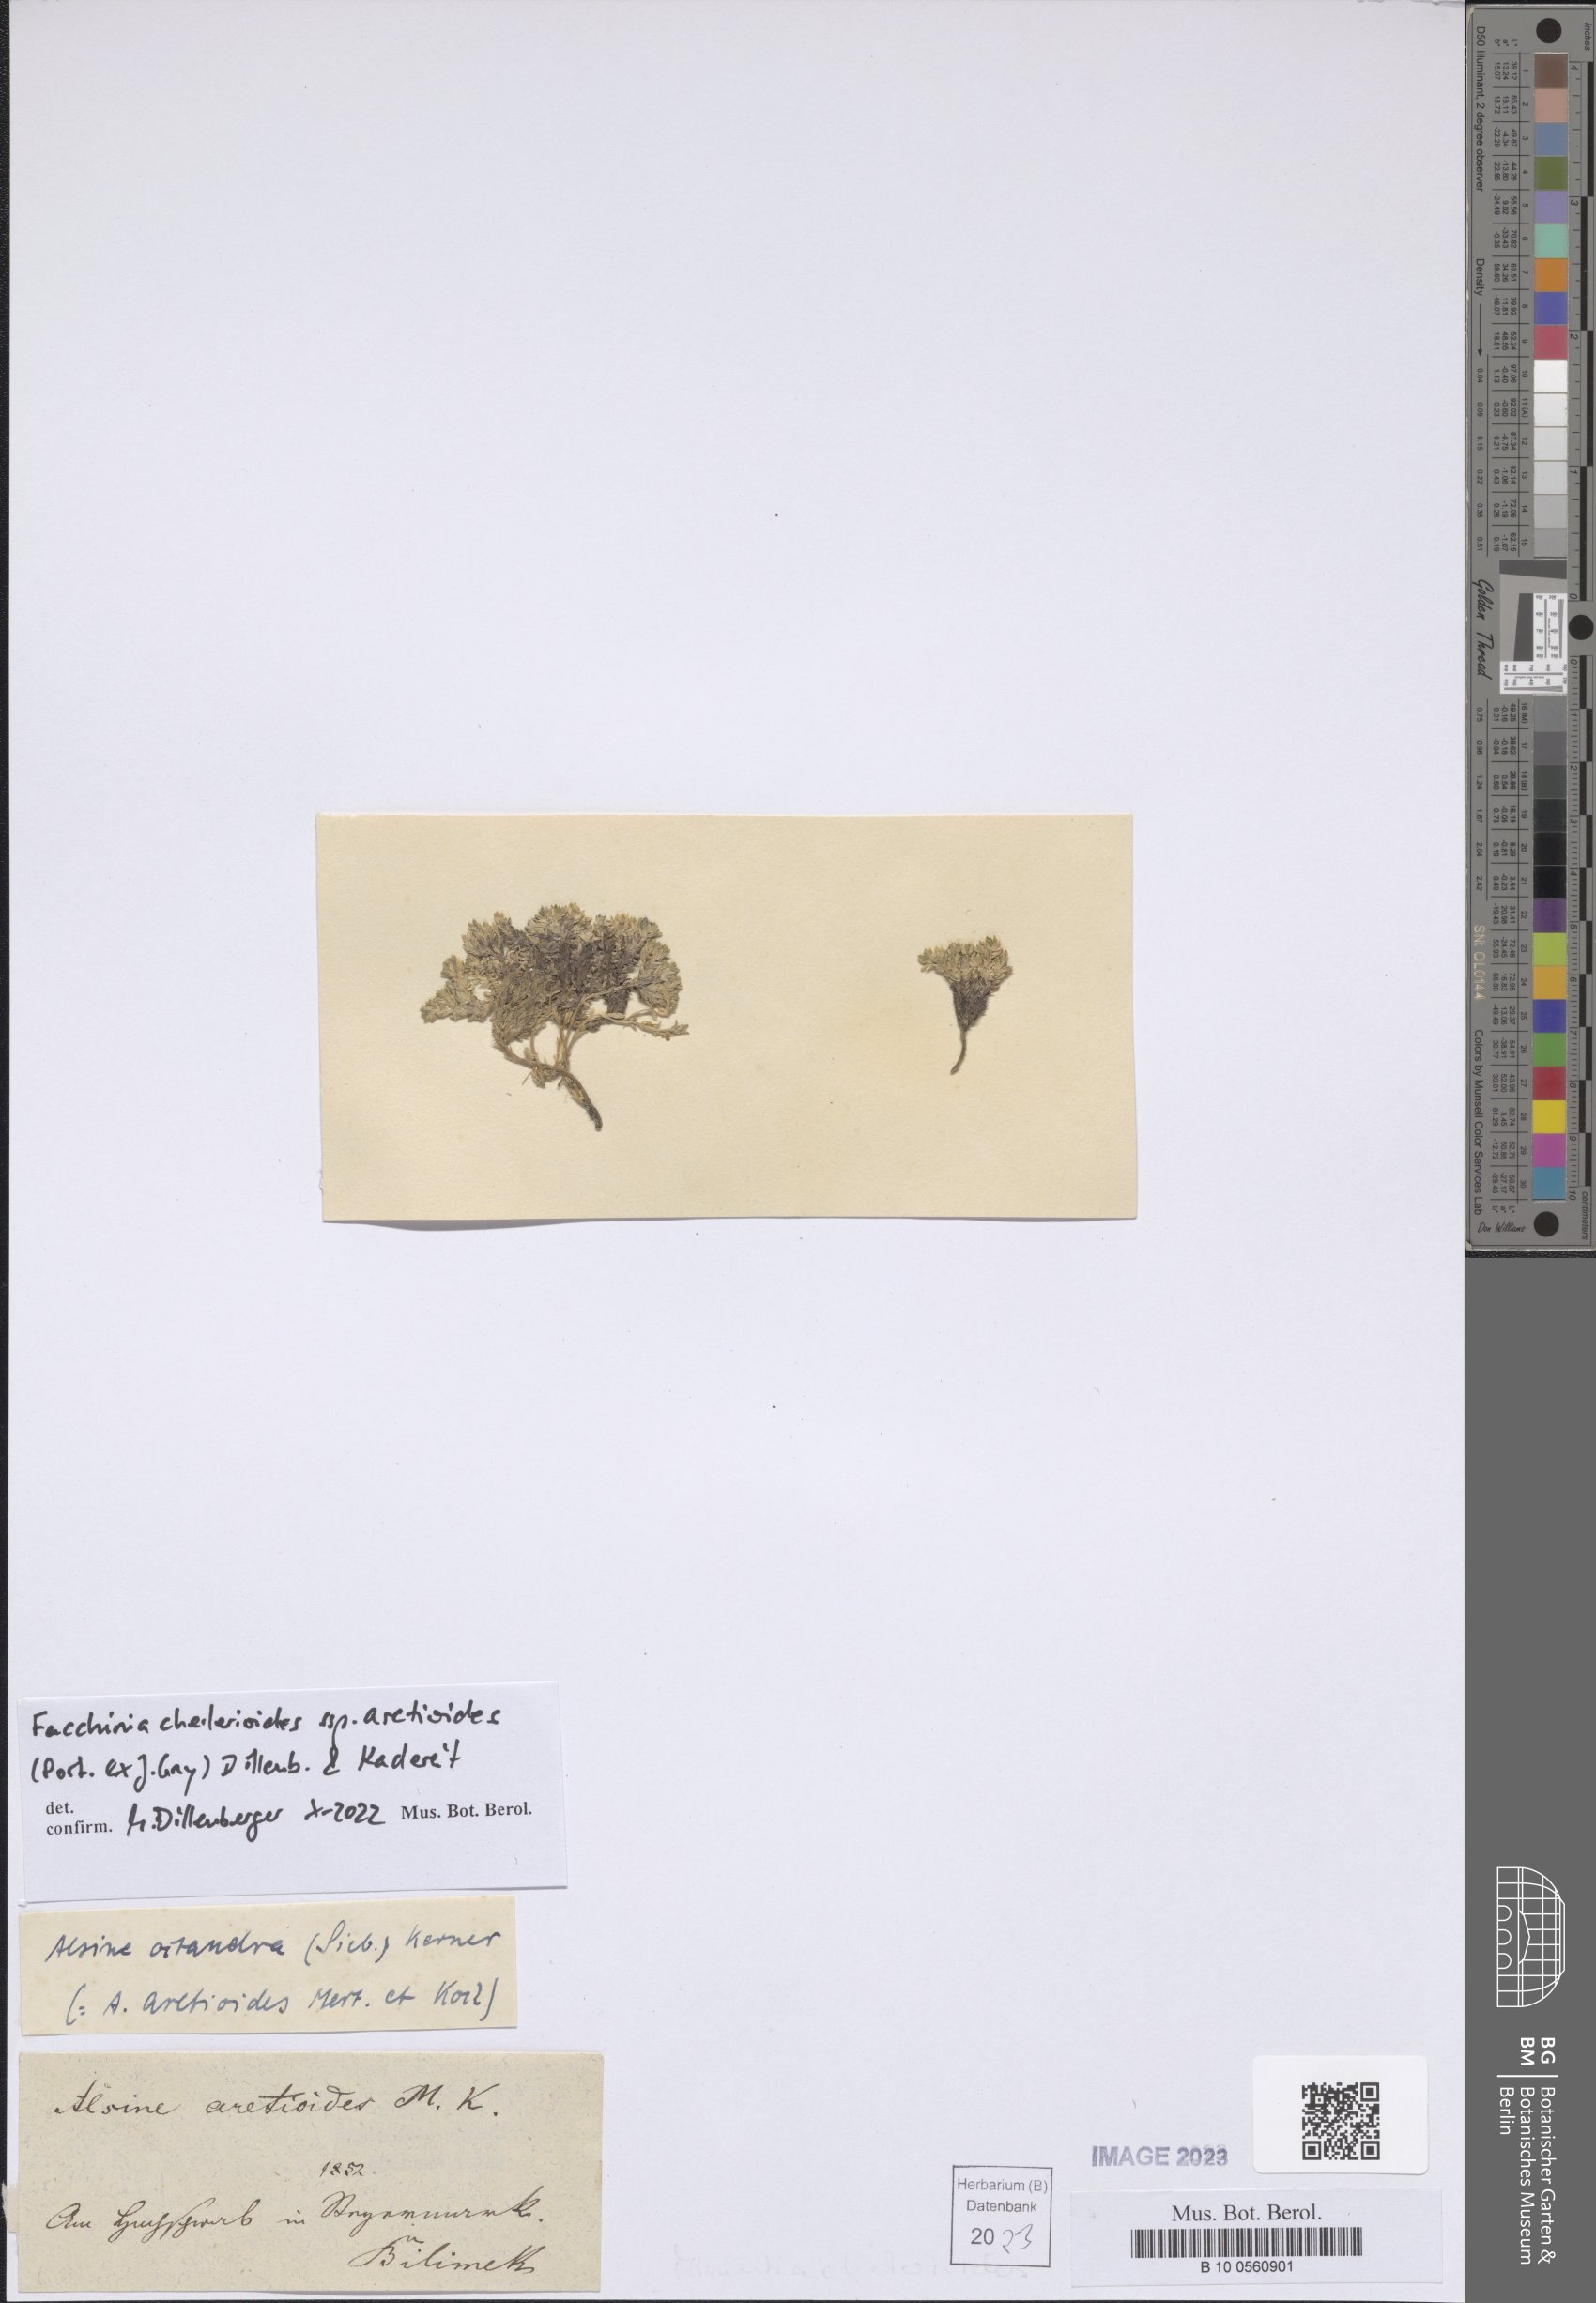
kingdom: Plantae
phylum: Tracheophyta
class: Magnoliopsida
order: Caryophyllales
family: Caryophyllaceae
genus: Facchinia
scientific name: Facchinia cherlerioides
